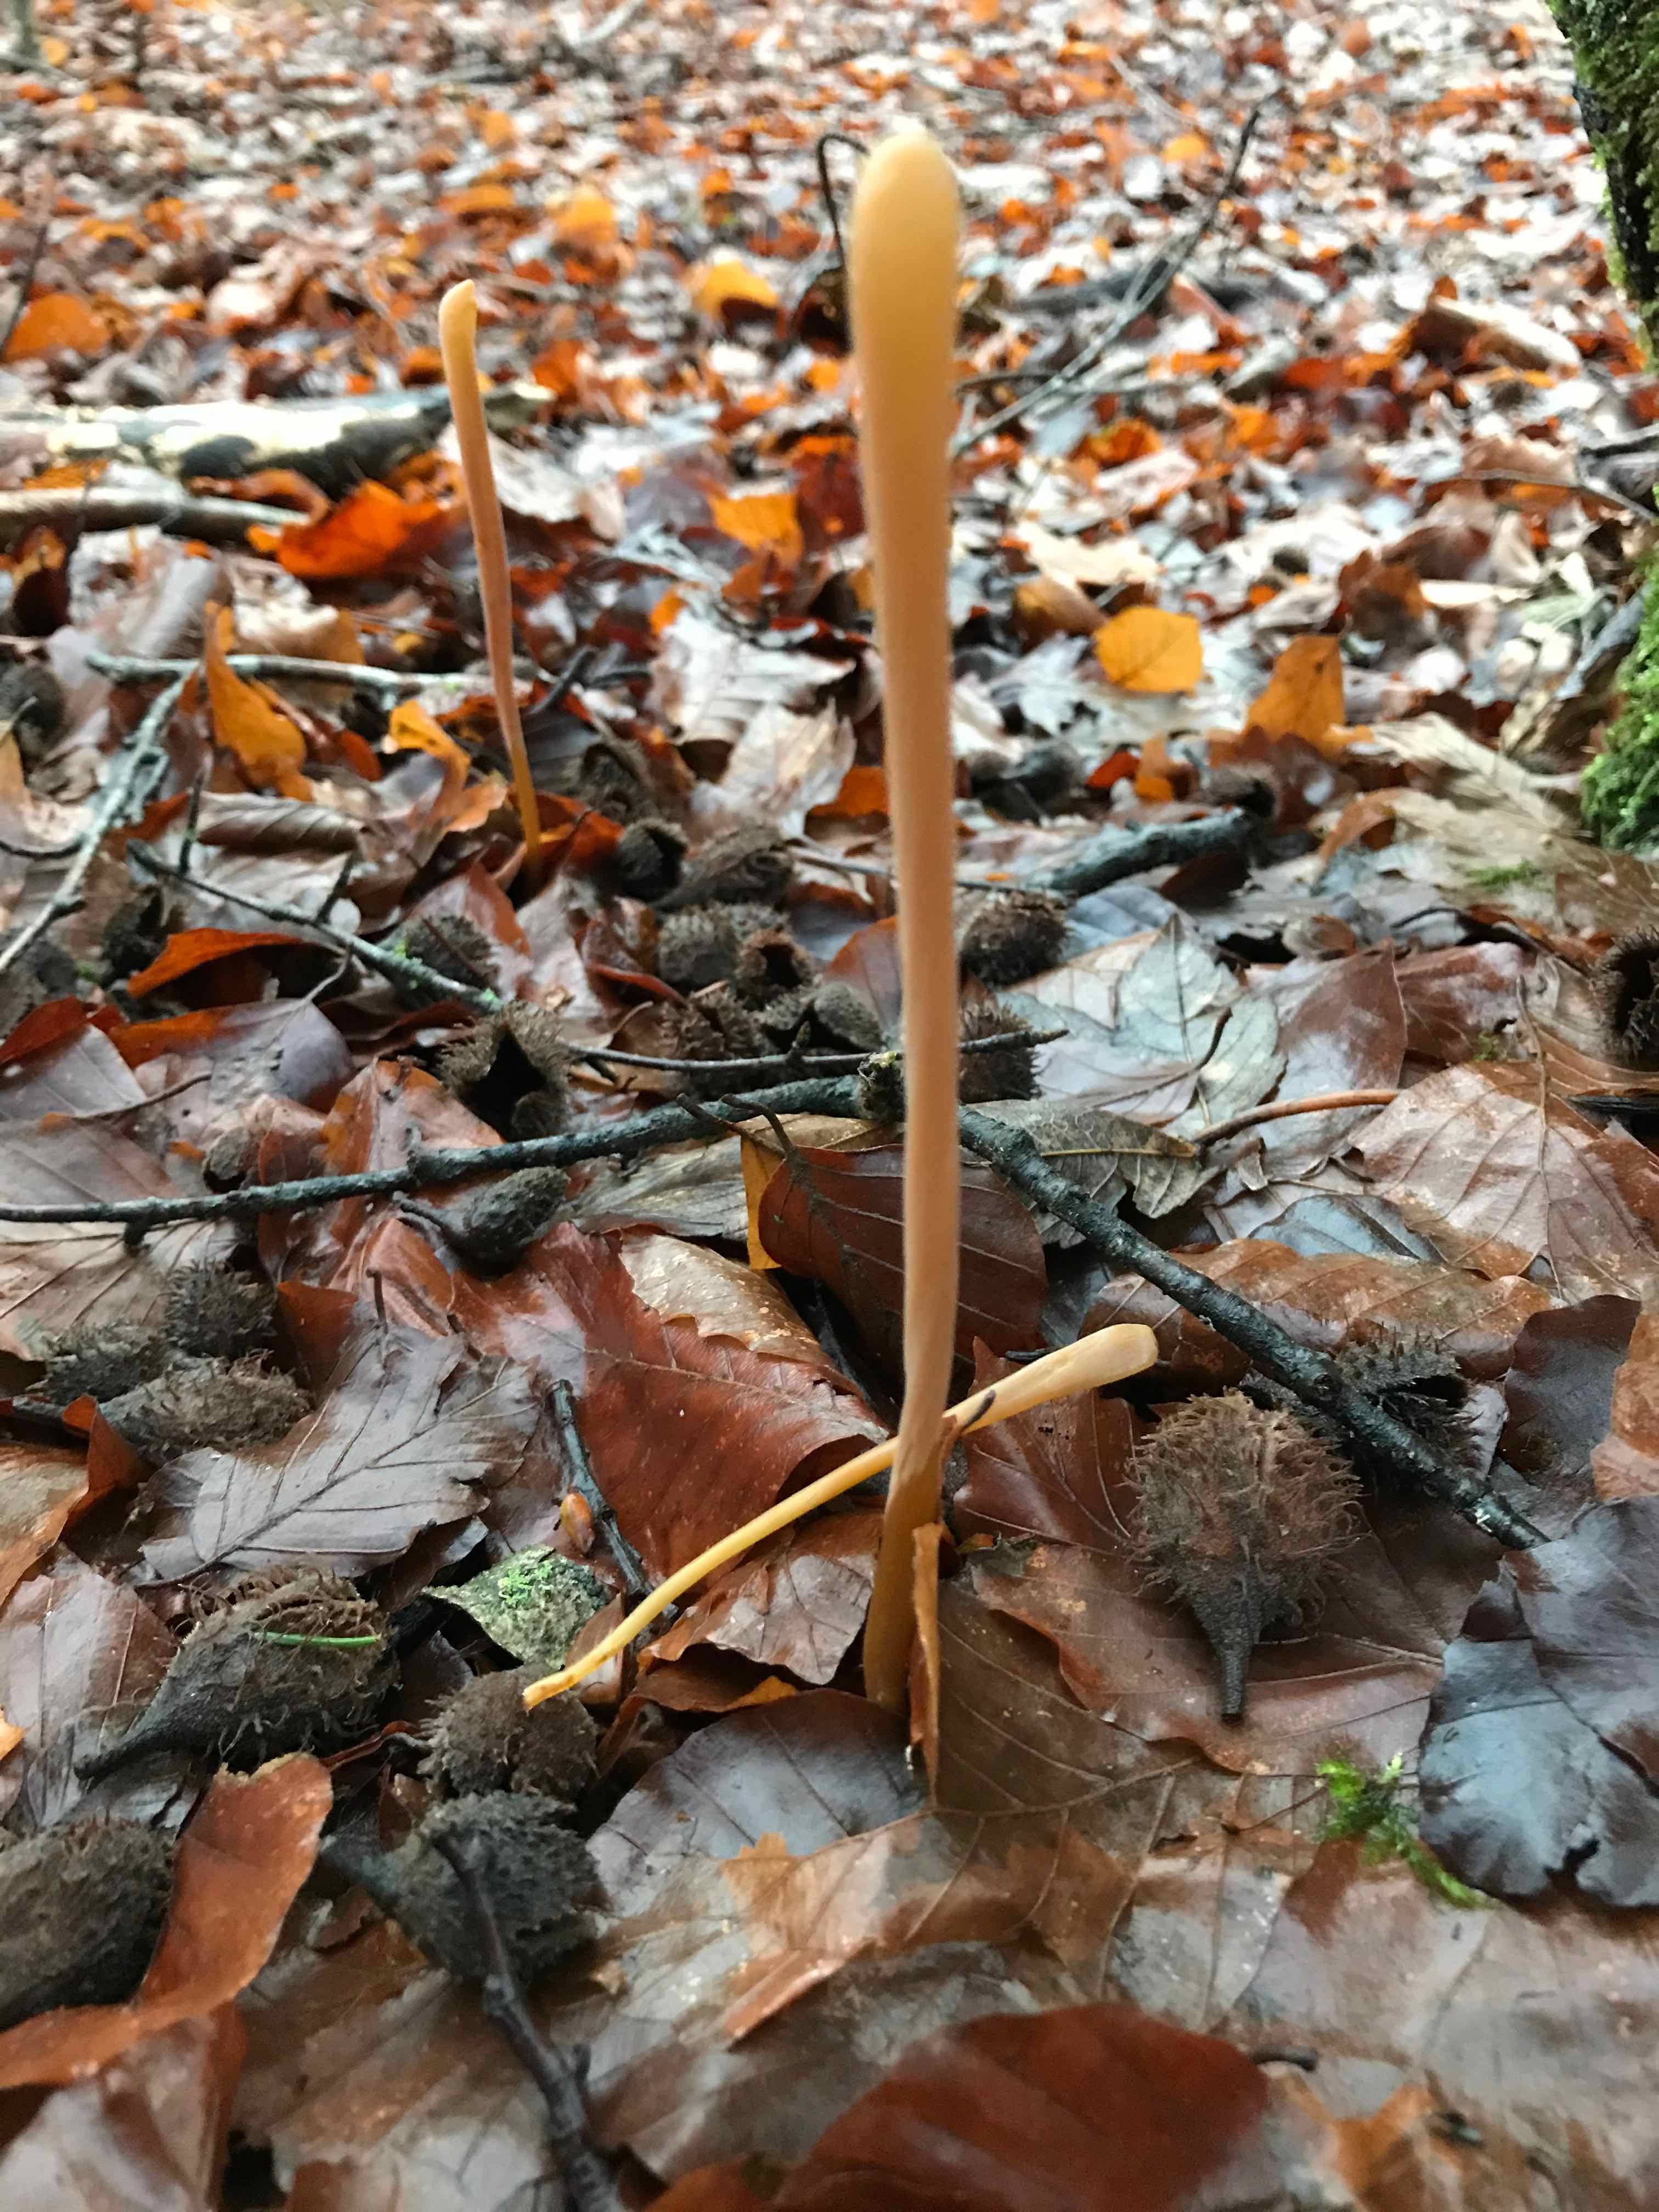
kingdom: Fungi
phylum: Basidiomycota
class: Agaricomycetes
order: Agaricales
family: Typhulaceae
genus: Typhula
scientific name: Typhula fistulosa
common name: pibet rørkølle
